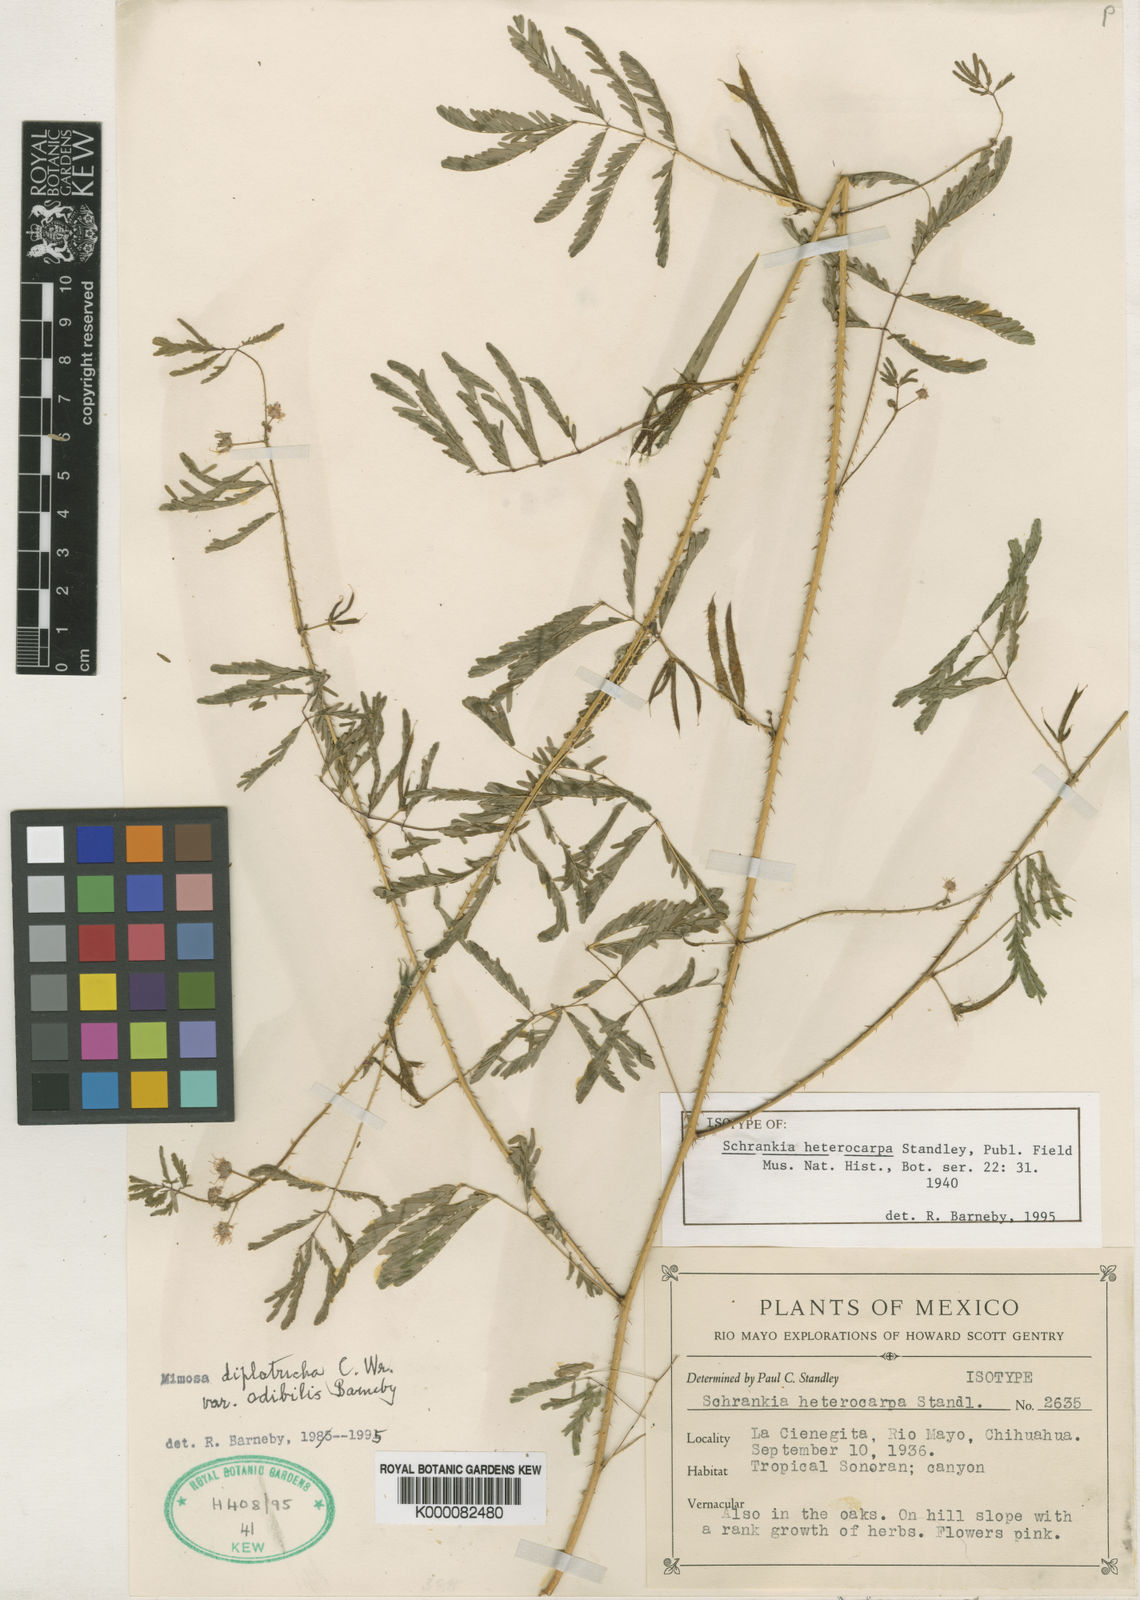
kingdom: Plantae
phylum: Tracheophyta
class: Magnoliopsida
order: Fabales
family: Fabaceae
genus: Mimosa
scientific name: Mimosa diplotricha
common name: Giant sensitive-plant
